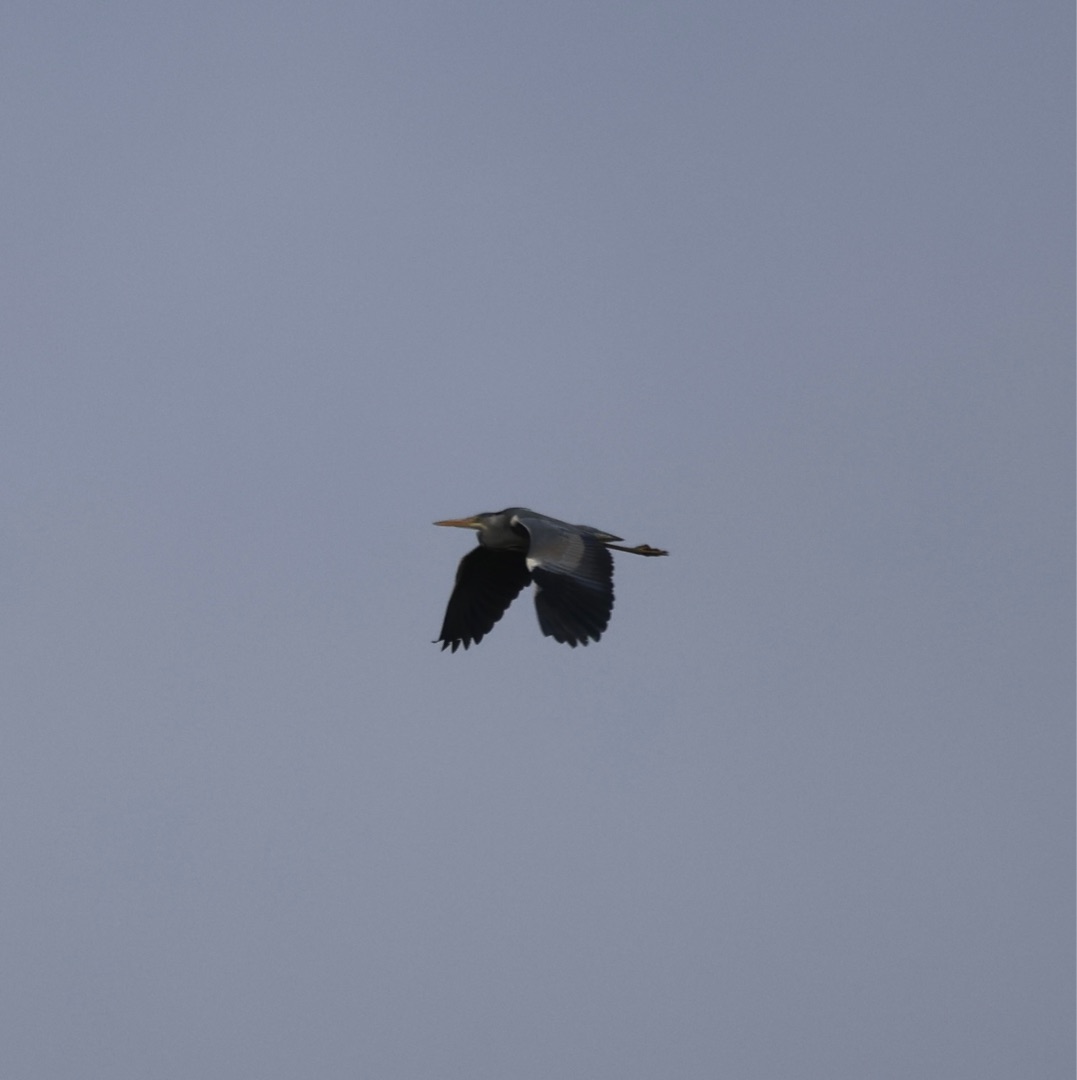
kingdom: Animalia
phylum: Chordata
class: Aves
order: Pelecaniformes
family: Ardeidae
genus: Ardea
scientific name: Ardea cinerea
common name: Fiskehejre
